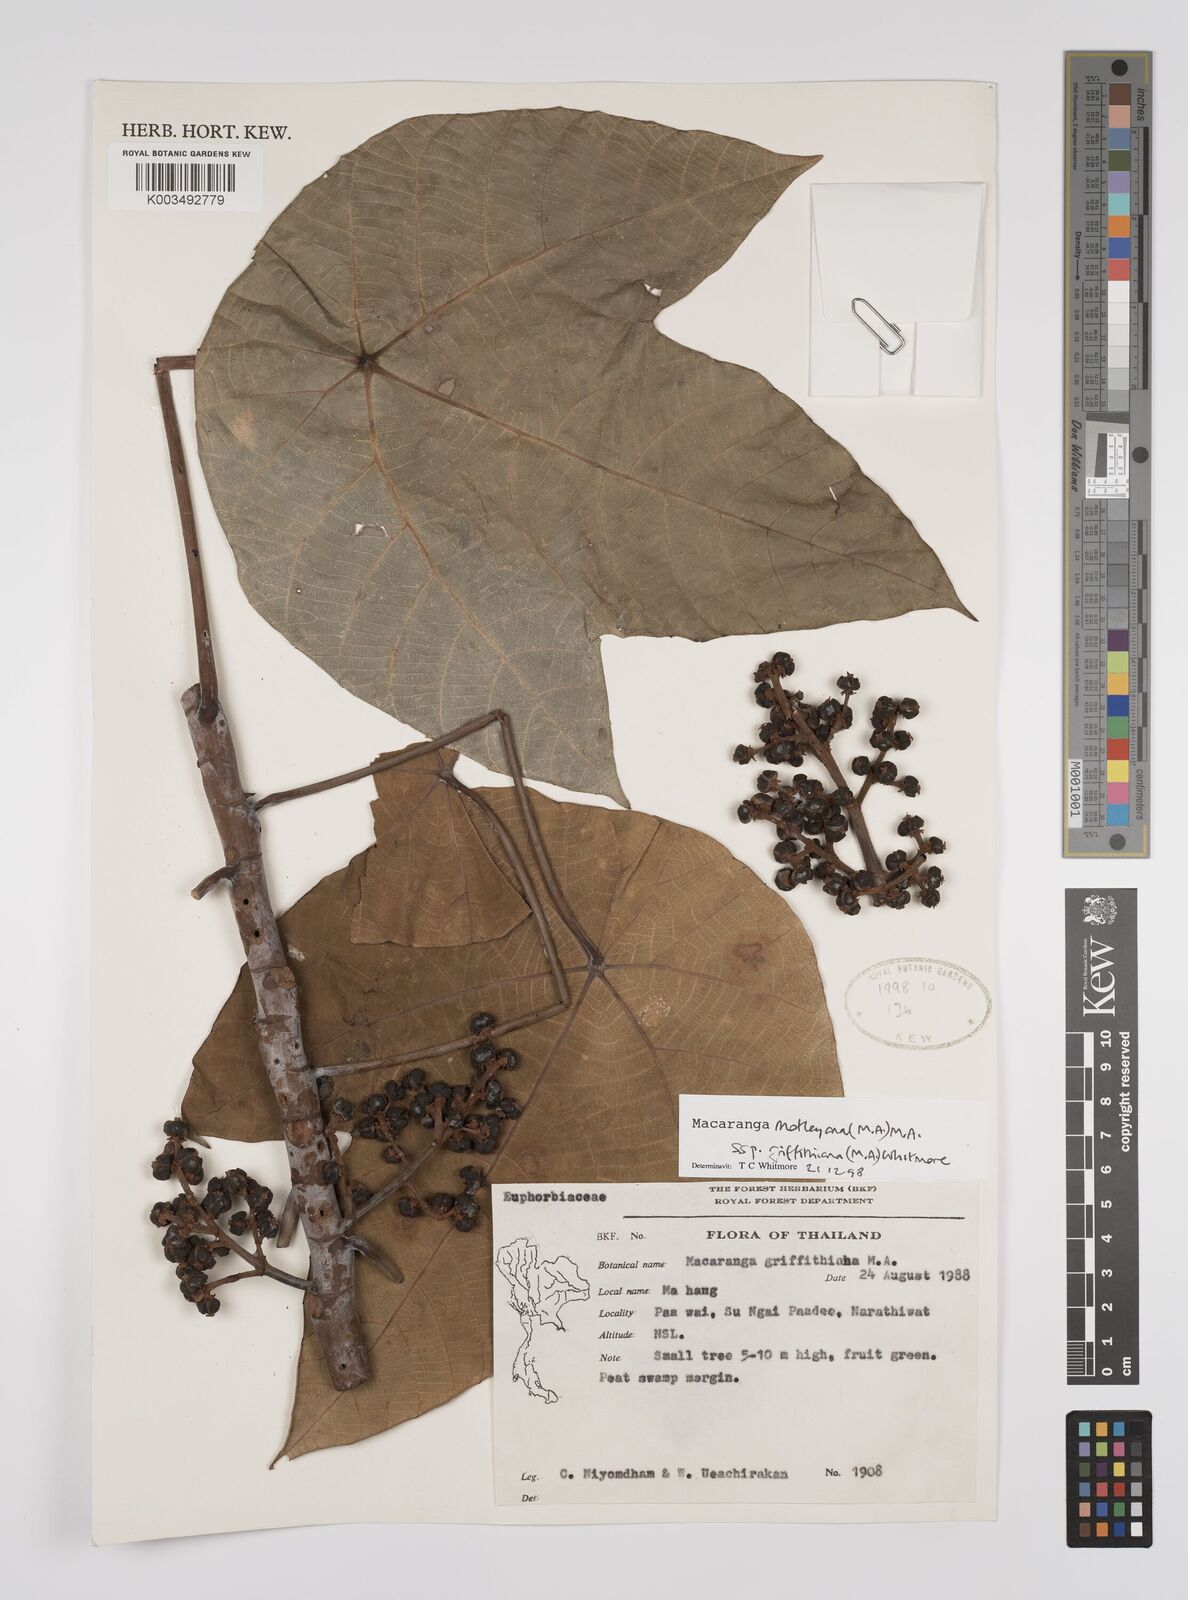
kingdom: Plantae
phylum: Tracheophyta
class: Magnoliopsida
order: Malpighiales
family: Euphorbiaceae
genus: Macaranga
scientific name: Macaranga griffithiana
